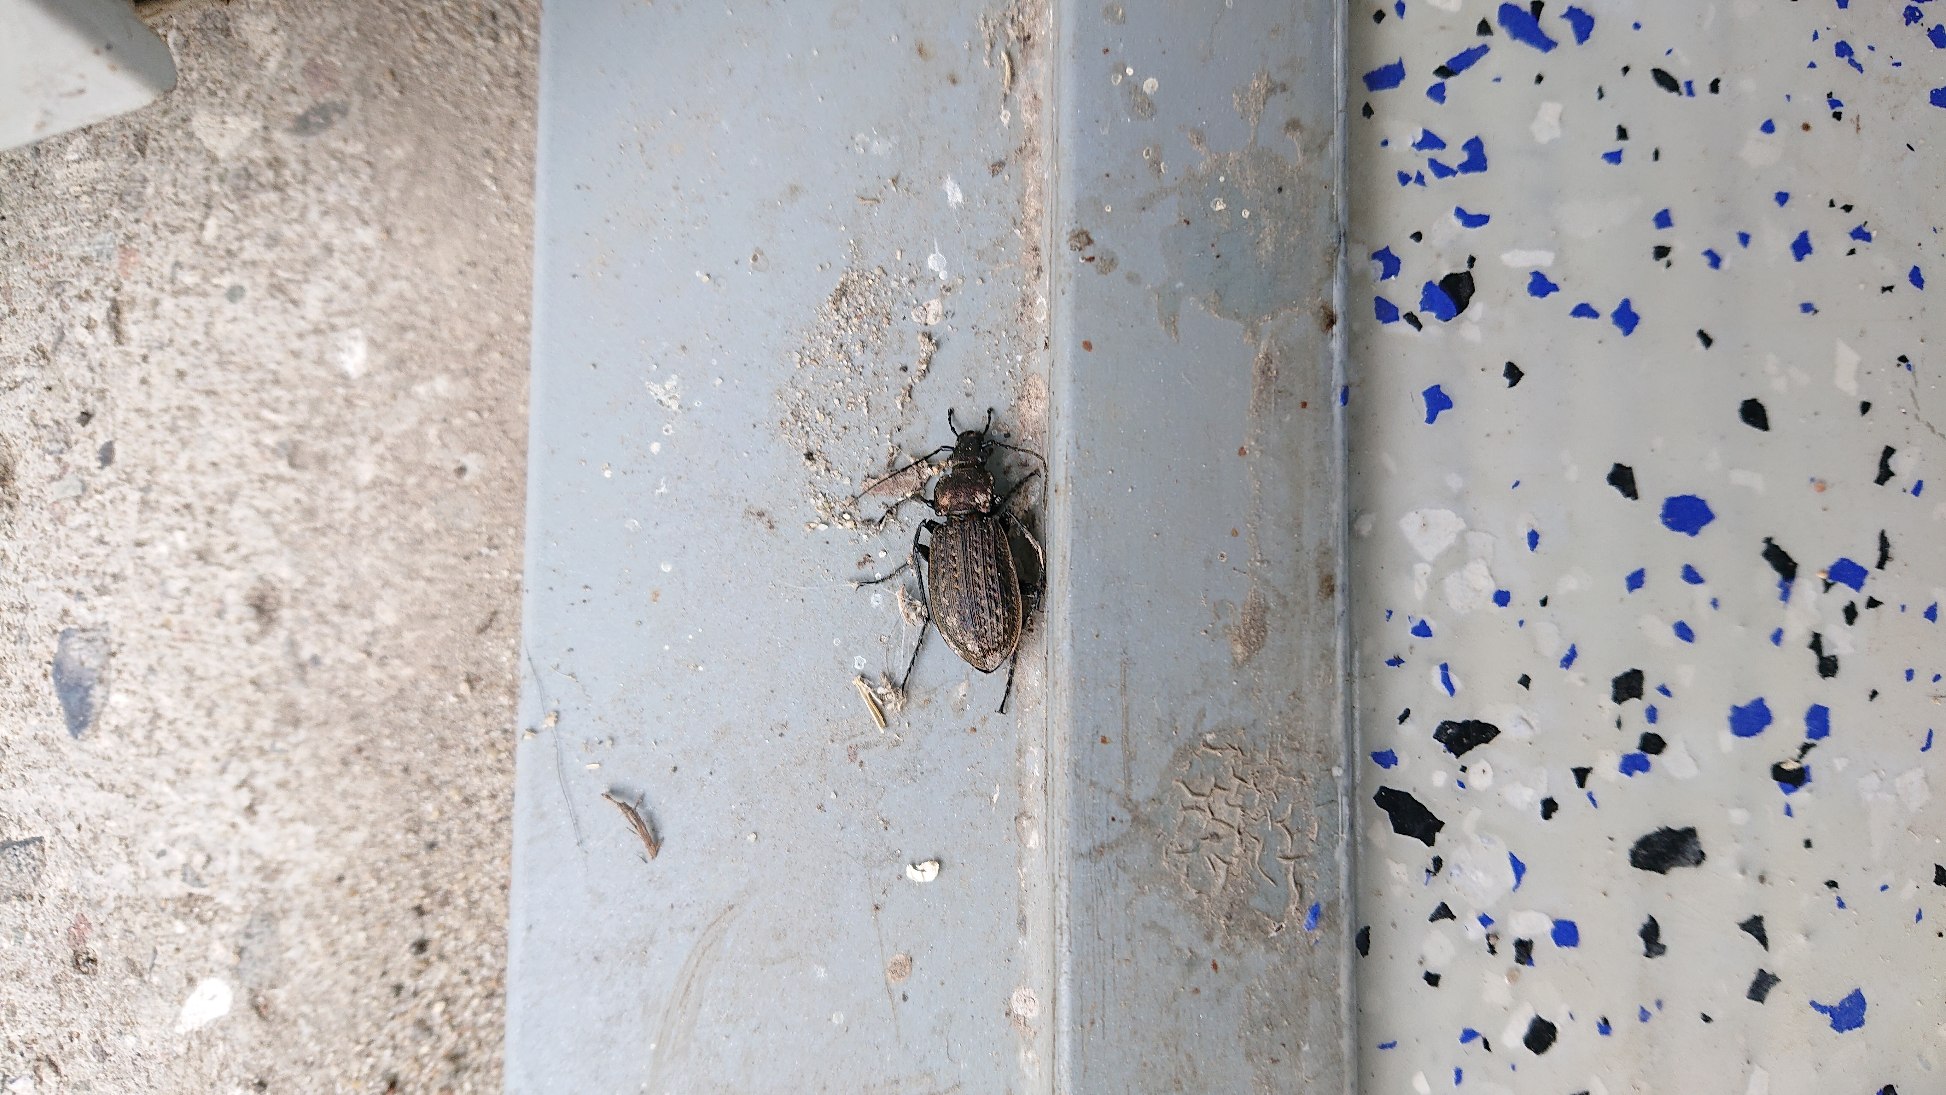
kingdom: Animalia
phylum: Arthropoda
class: Insecta
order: Coleoptera
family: Carabidae
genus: Carabus
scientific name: Carabus granulatus
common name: Kornet løber
